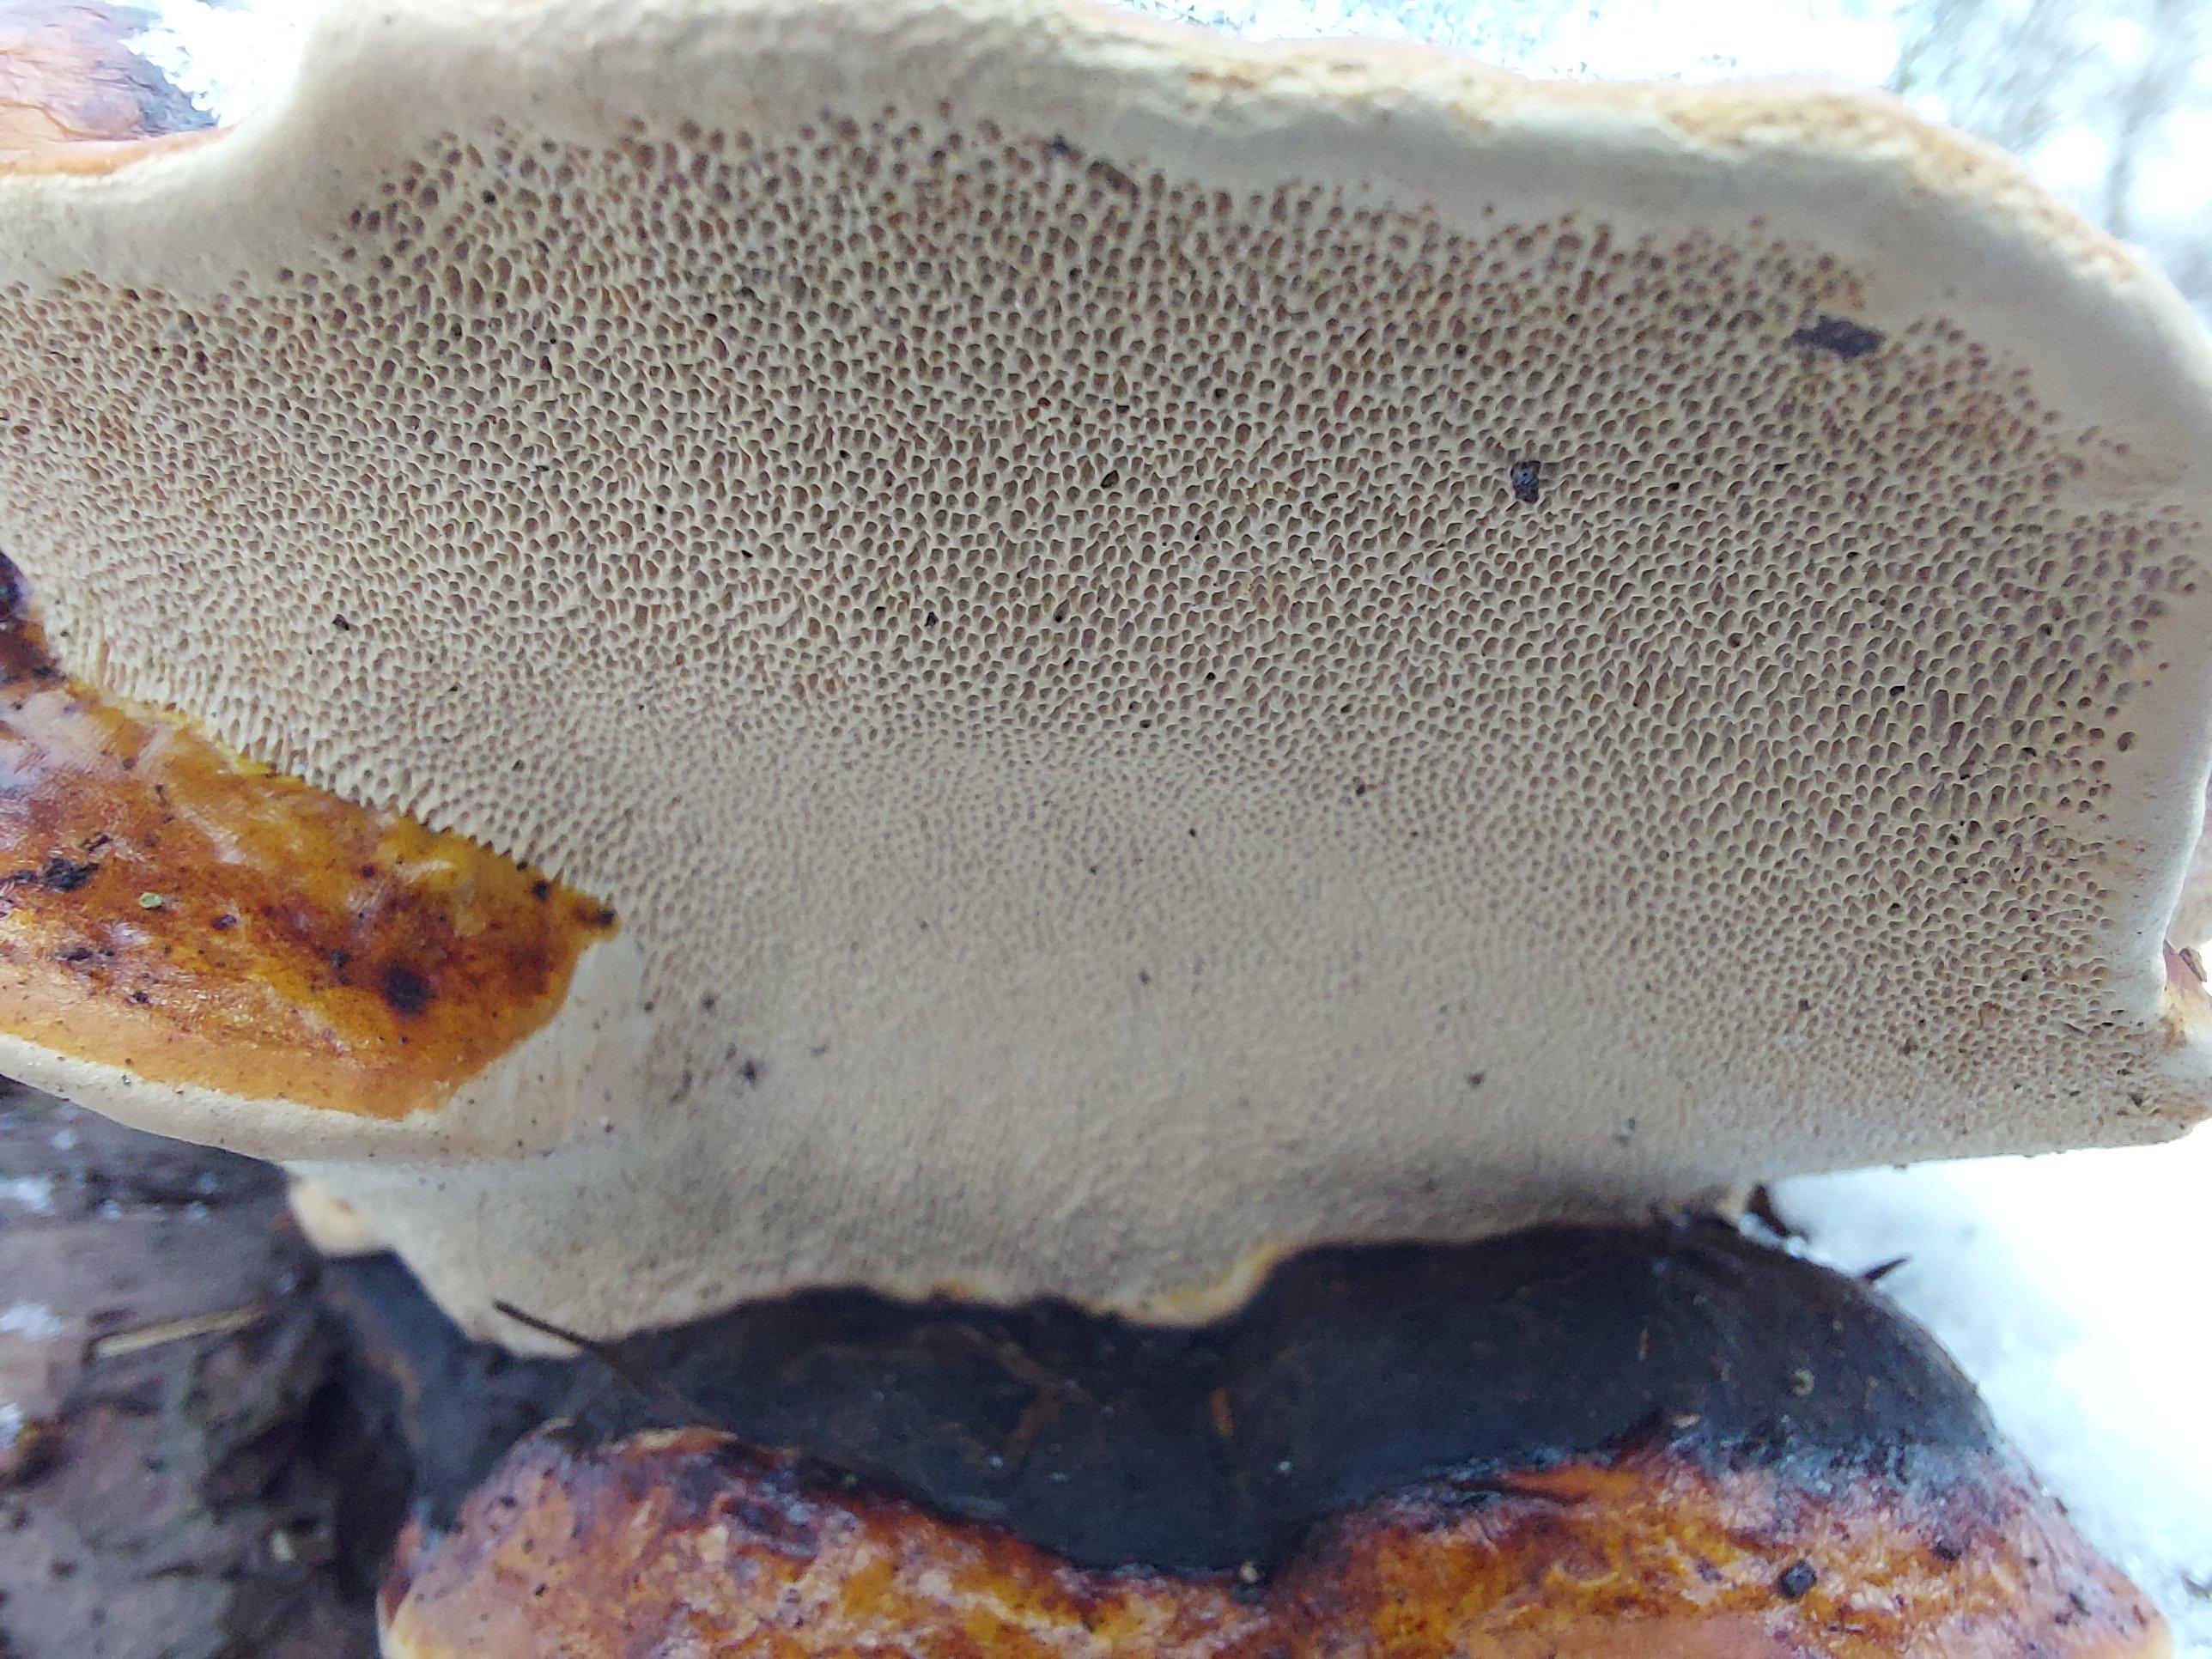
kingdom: Fungi
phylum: Basidiomycota
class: Agaricomycetes
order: Polyporales
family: Fomitopsidaceae
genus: Fomitopsis
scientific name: Fomitopsis pinicola
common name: randbæltet hovporesvamp
